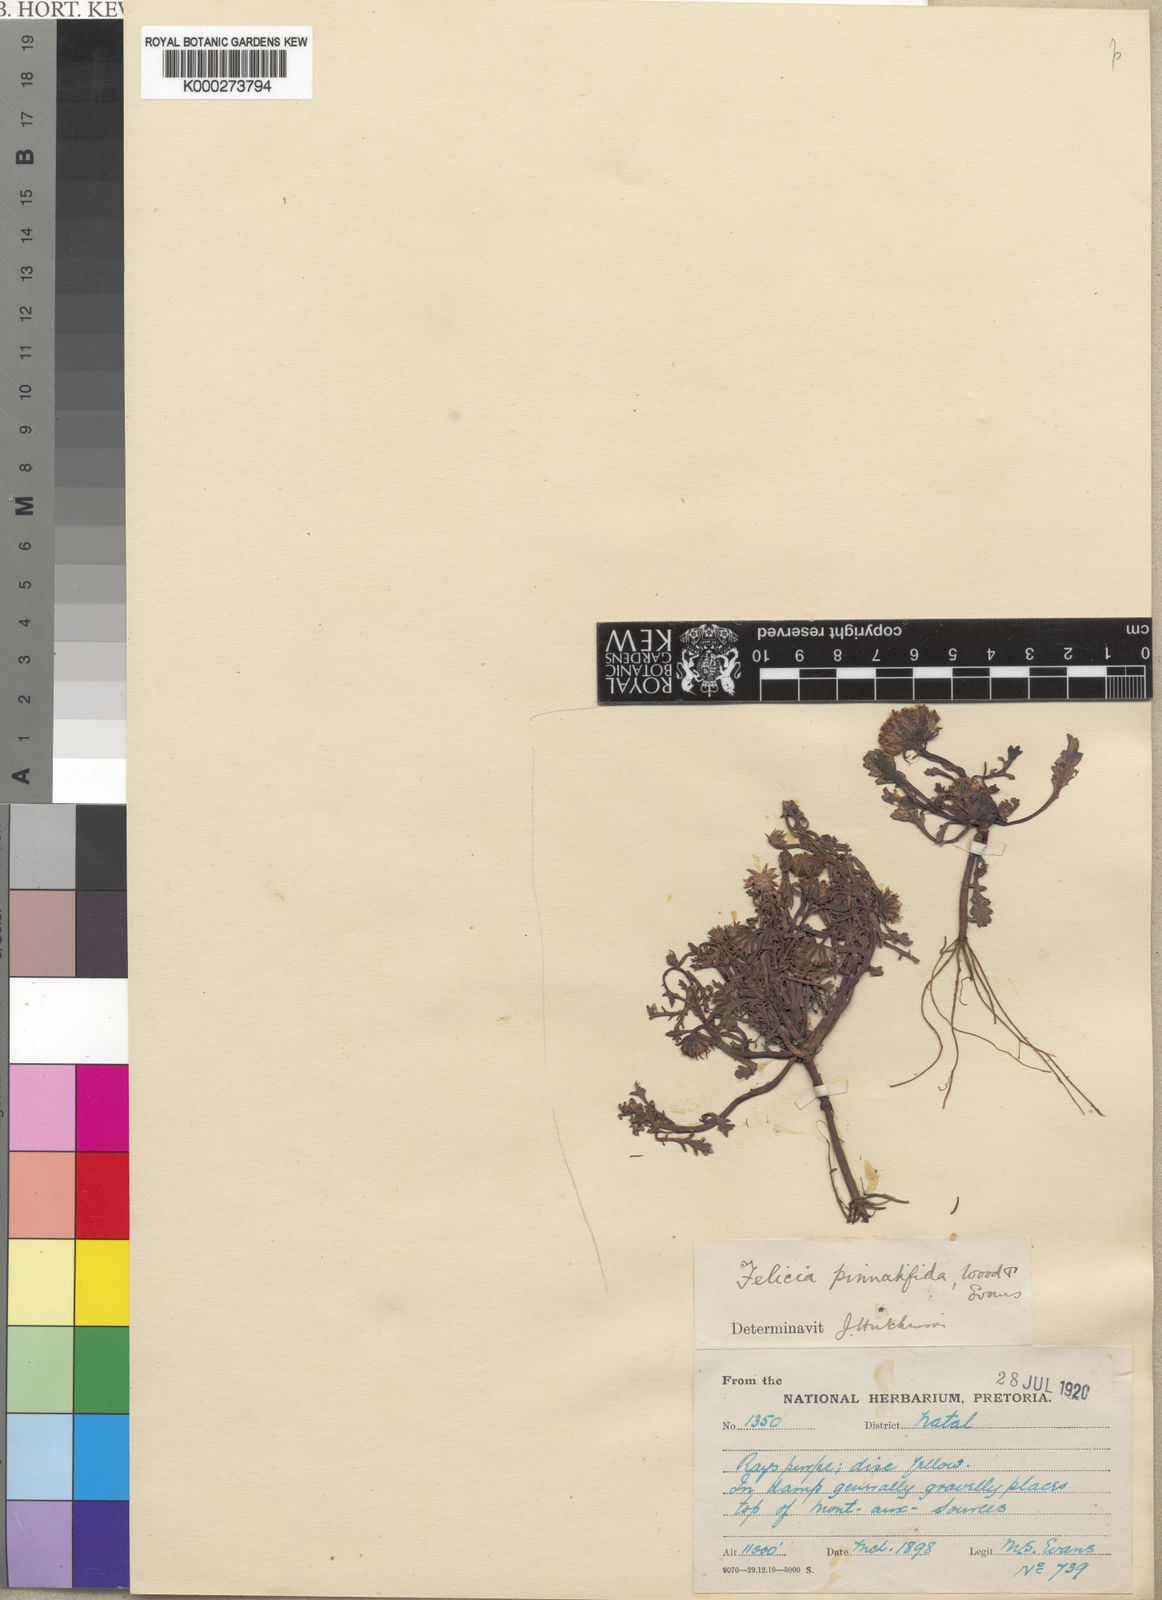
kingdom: Plantae
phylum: Tracheophyta
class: Magnoliopsida
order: Asterales
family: Asteraceae
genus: Polyarrhena
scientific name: Polyarrhena
